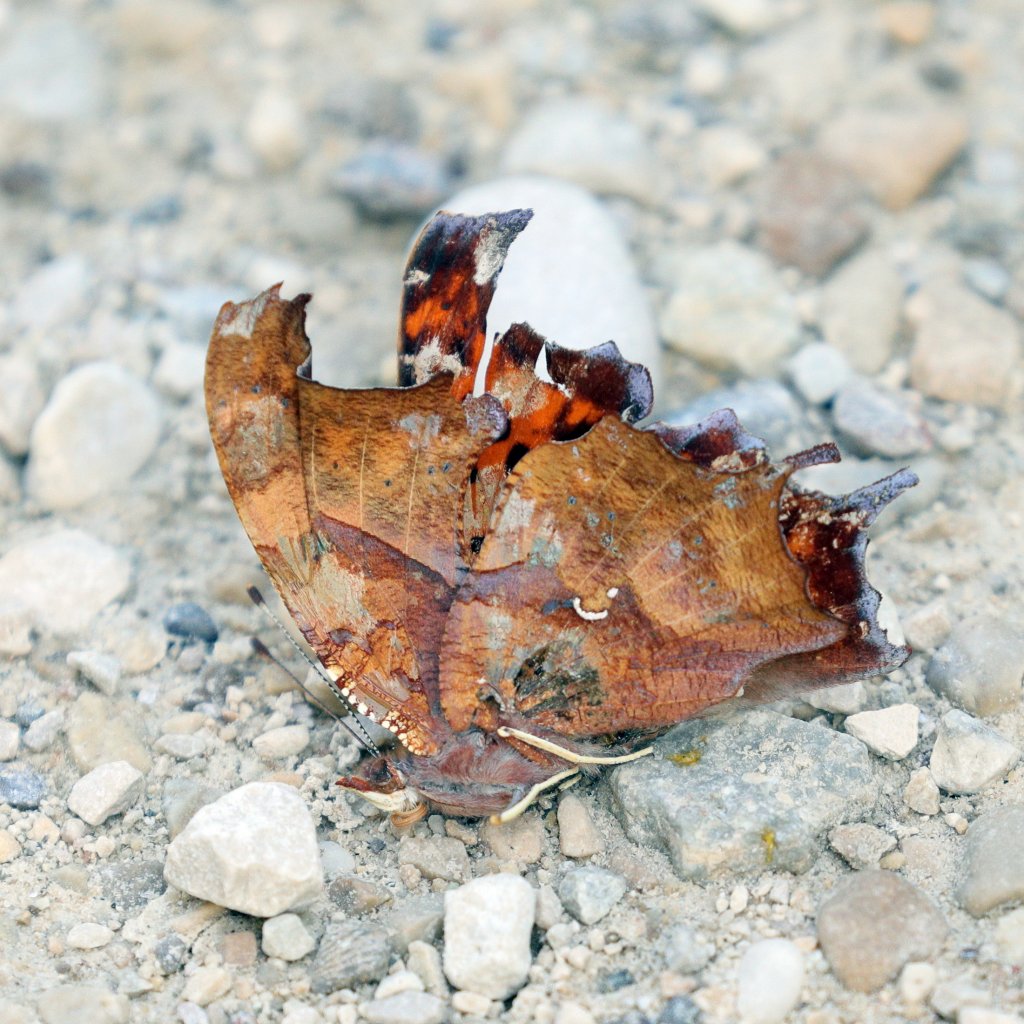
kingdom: Animalia
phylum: Arthropoda
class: Insecta
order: Lepidoptera
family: Nymphalidae
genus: Polygonia
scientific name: Polygonia interrogationis
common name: Question Mark
